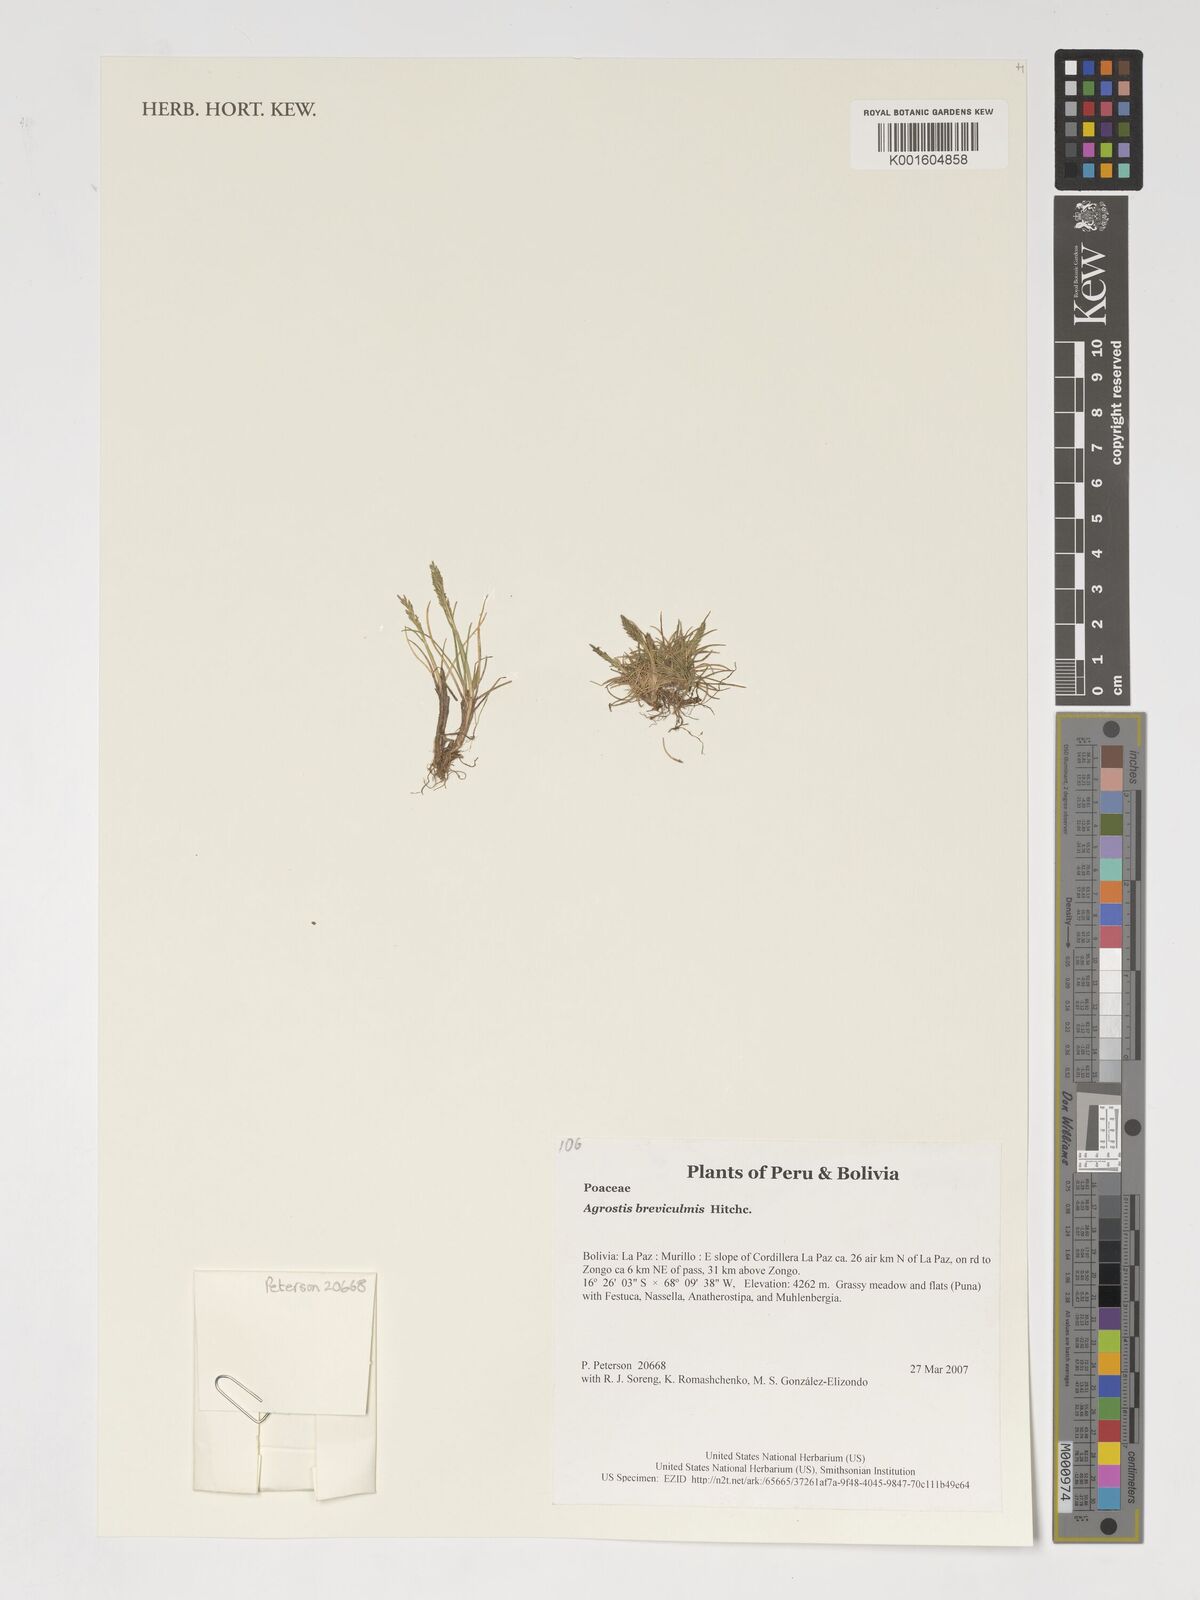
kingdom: Plantae
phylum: Tracheophyta
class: Liliopsida
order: Poales
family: Poaceae
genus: Agrostis
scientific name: Agrostis breviculmis
